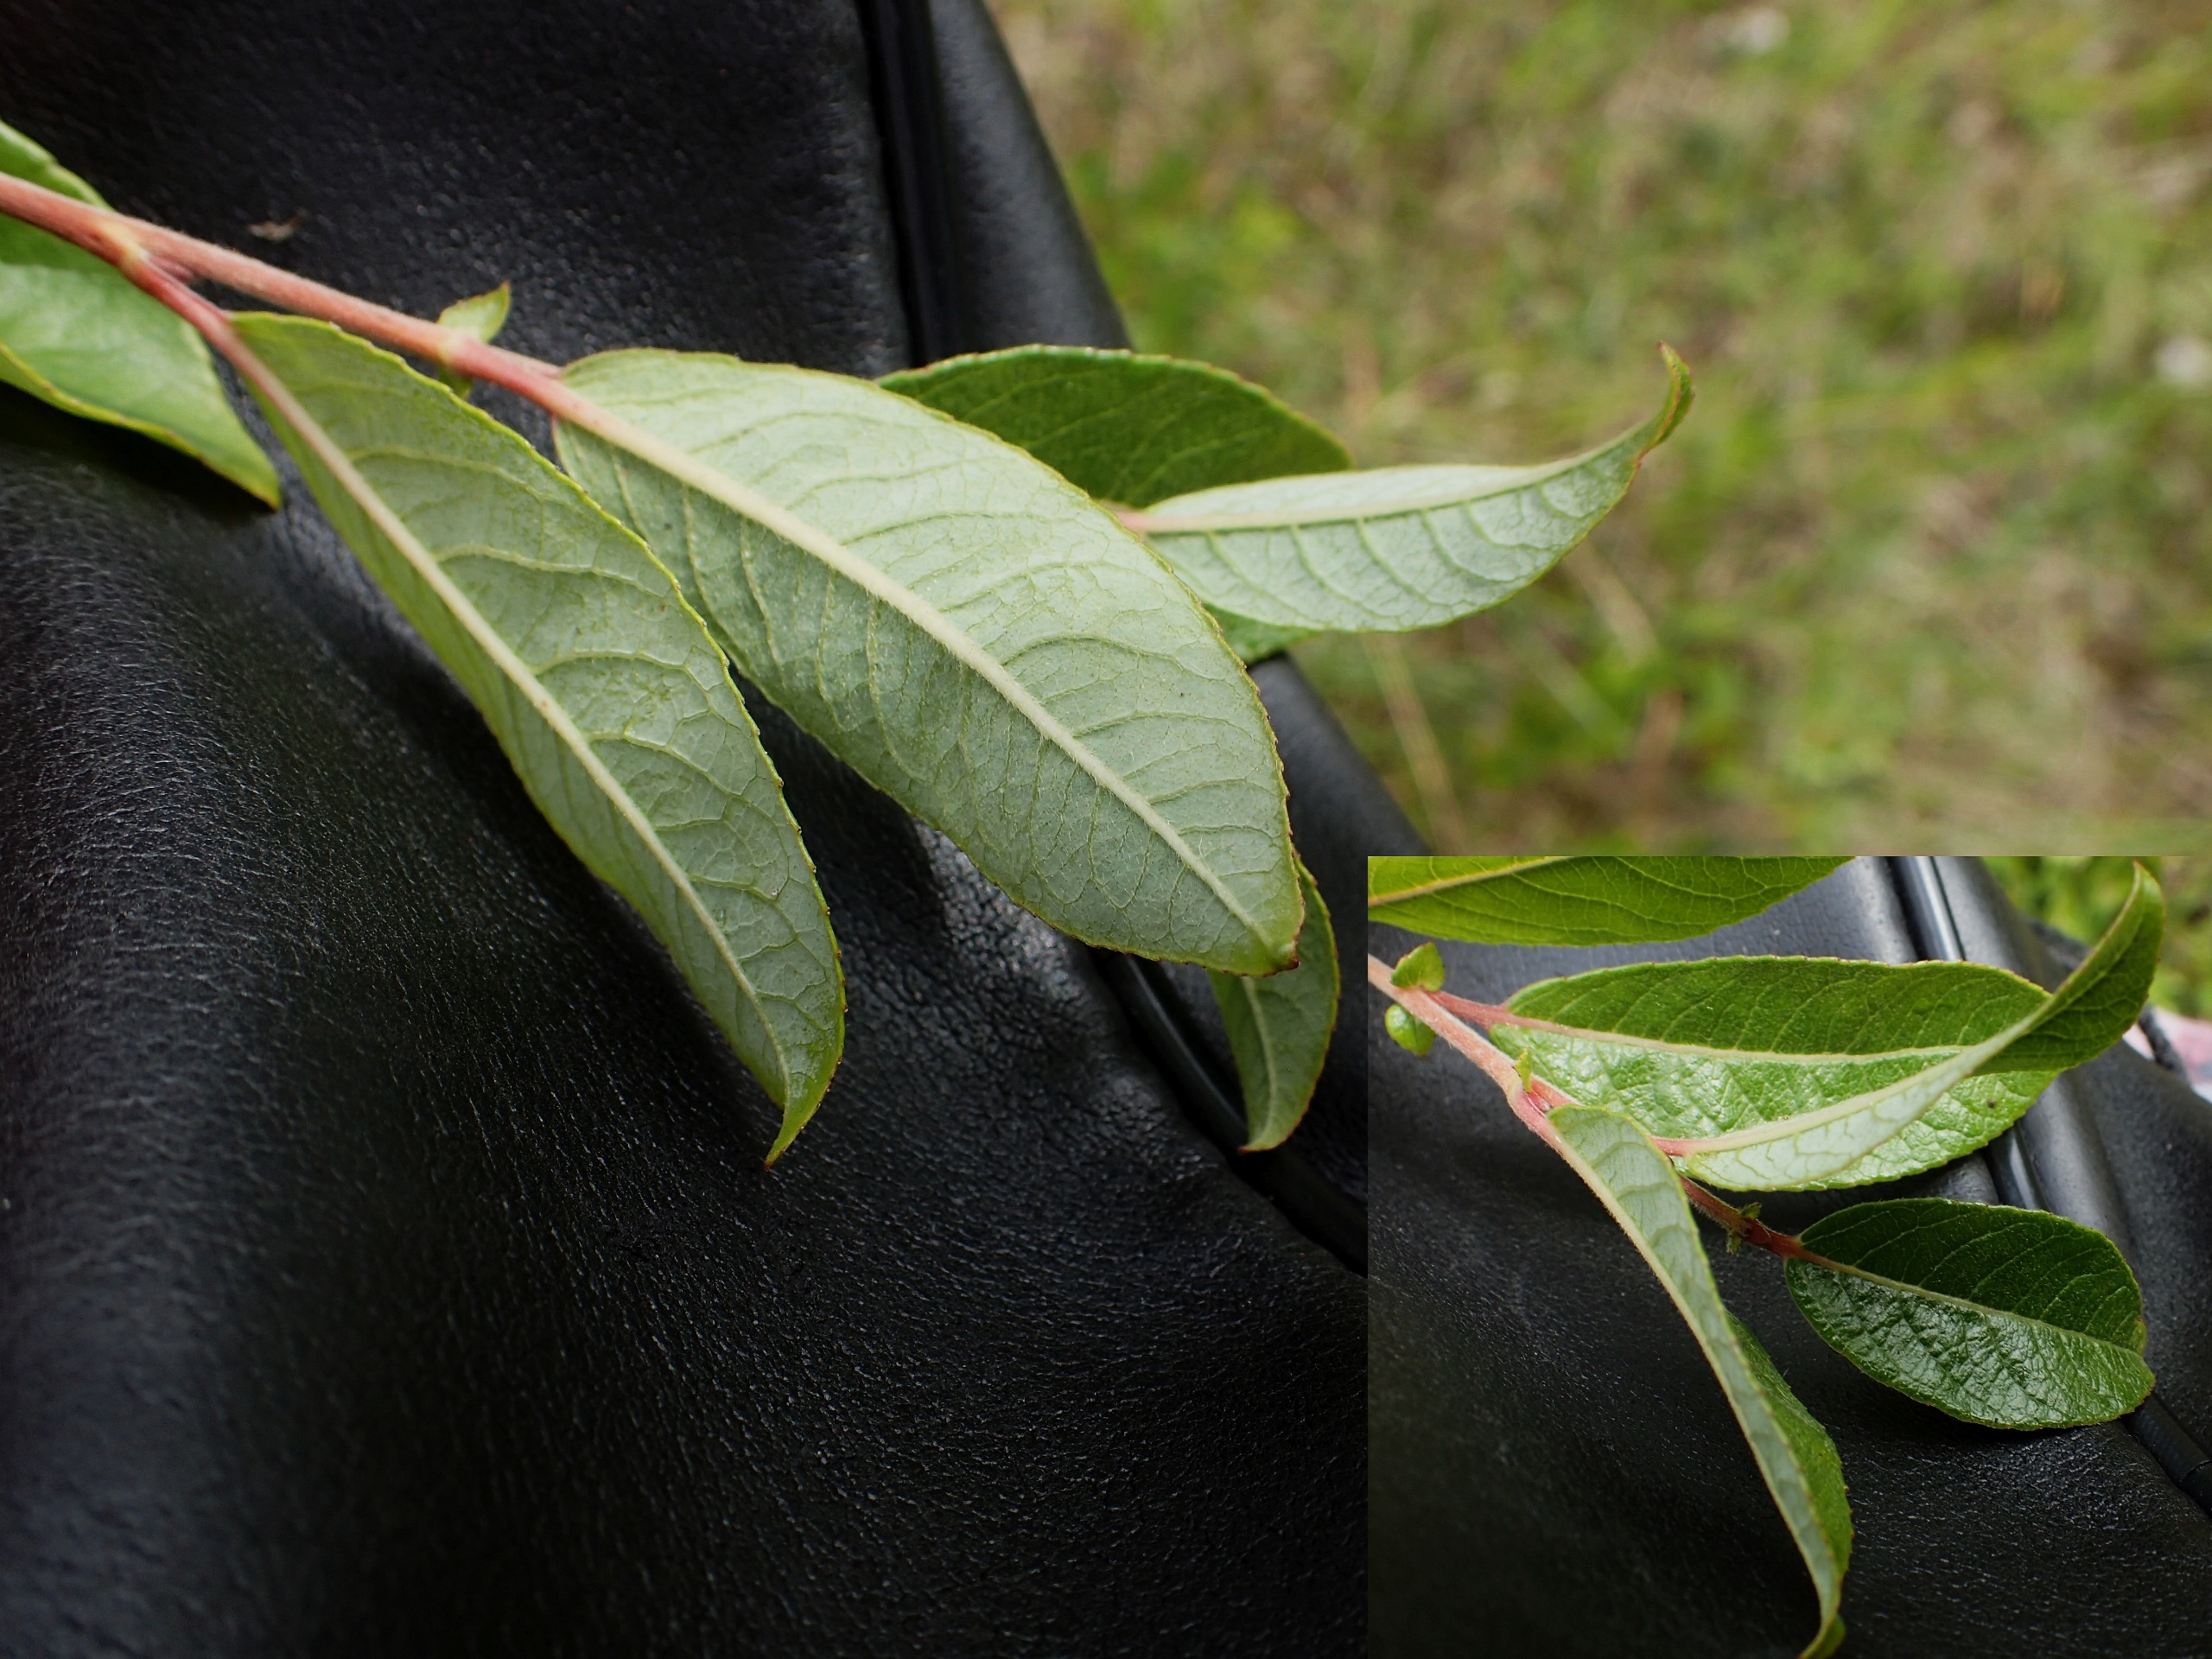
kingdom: Plantae
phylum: Tracheophyta
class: Magnoliopsida
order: Malpighiales
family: Salicaceae
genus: Salix
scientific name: Salix myrsinifolia
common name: Sort pil
